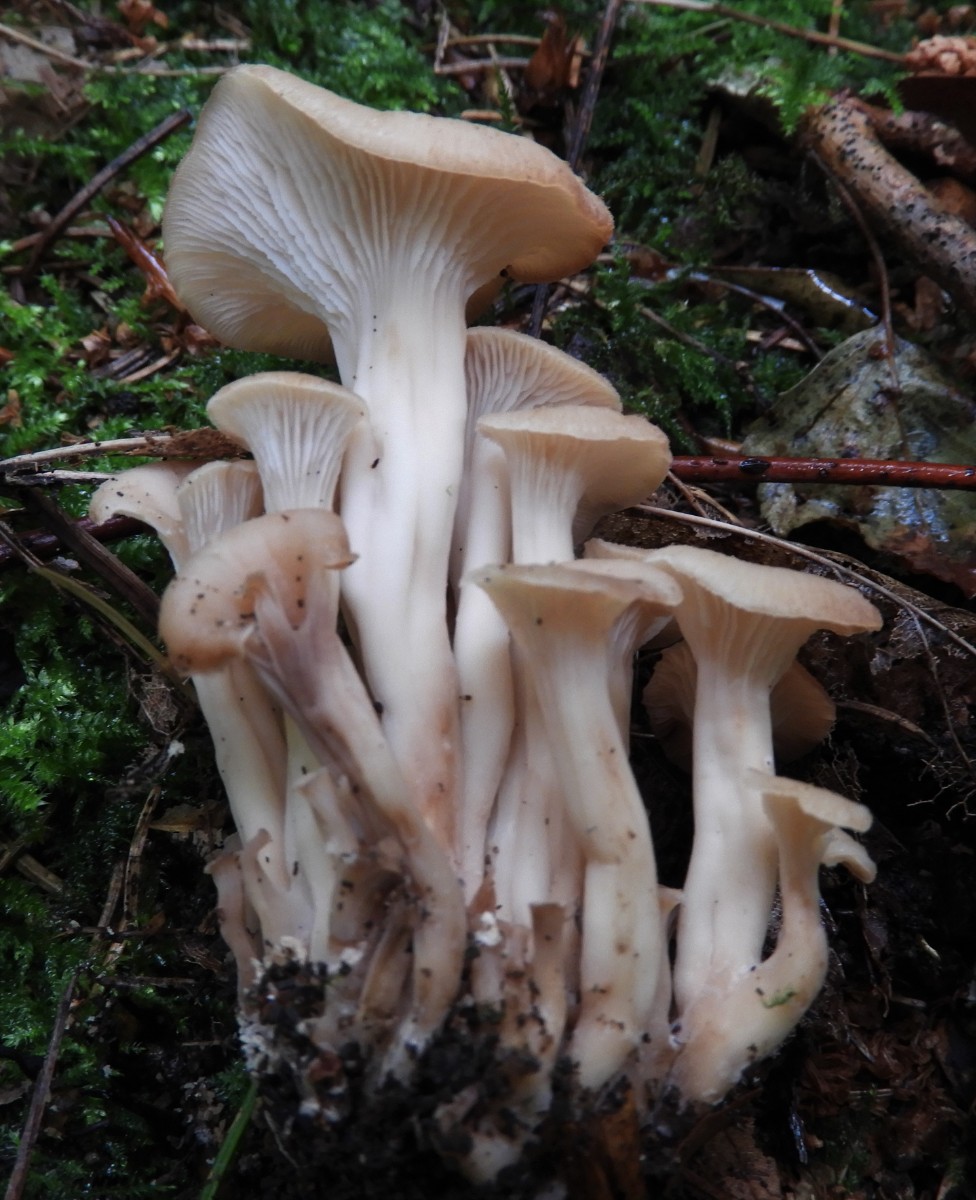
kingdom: Fungi
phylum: Basidiomycota
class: Agaricomycetes
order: Russulales
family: Auriscalpiaceae
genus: Lentinellus
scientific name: Lentinellus cochleatus
